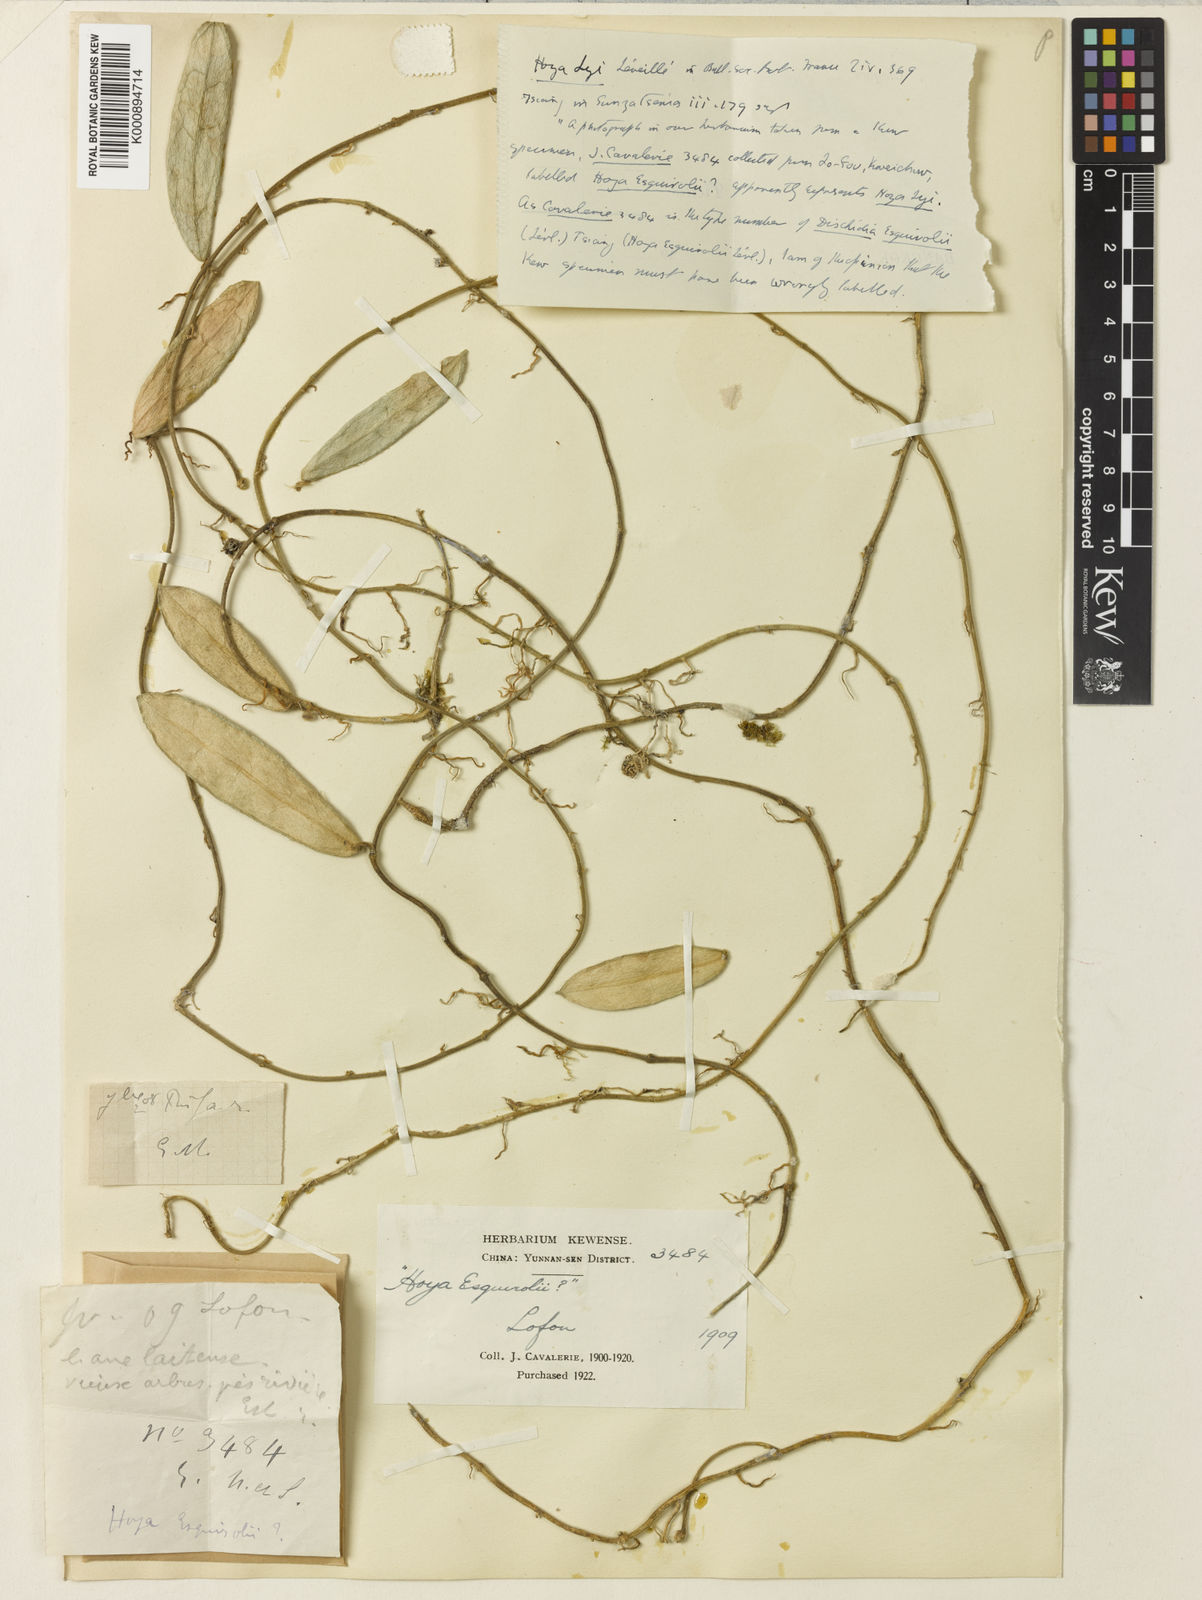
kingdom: Plantae
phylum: Tracheophyta
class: Magnoliopsida
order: Gentianales
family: Apocynaceae
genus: Hoya
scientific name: Hoya
